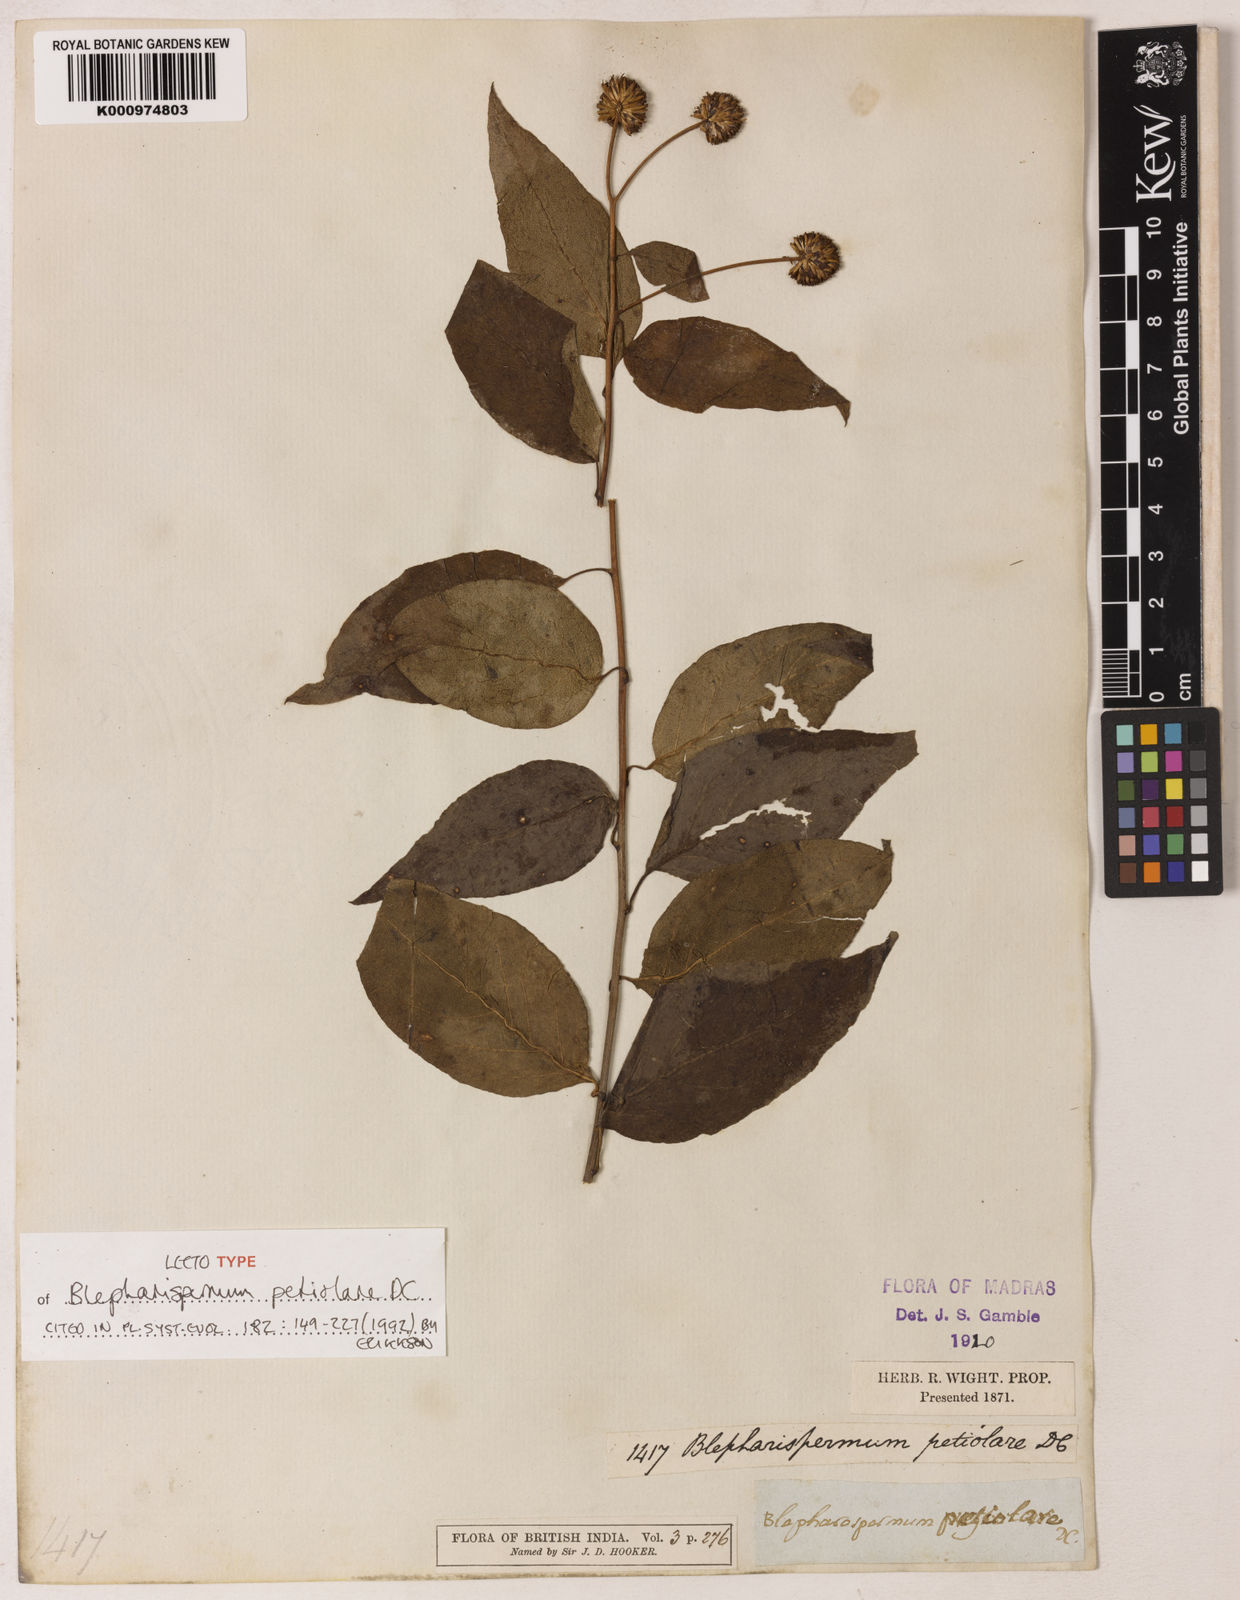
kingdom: Plantae
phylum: Tracheophyta
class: Magnoliopsida
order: Asterales
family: Asteraceae
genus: Blepharispermum
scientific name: Blepharispermum petiolare
